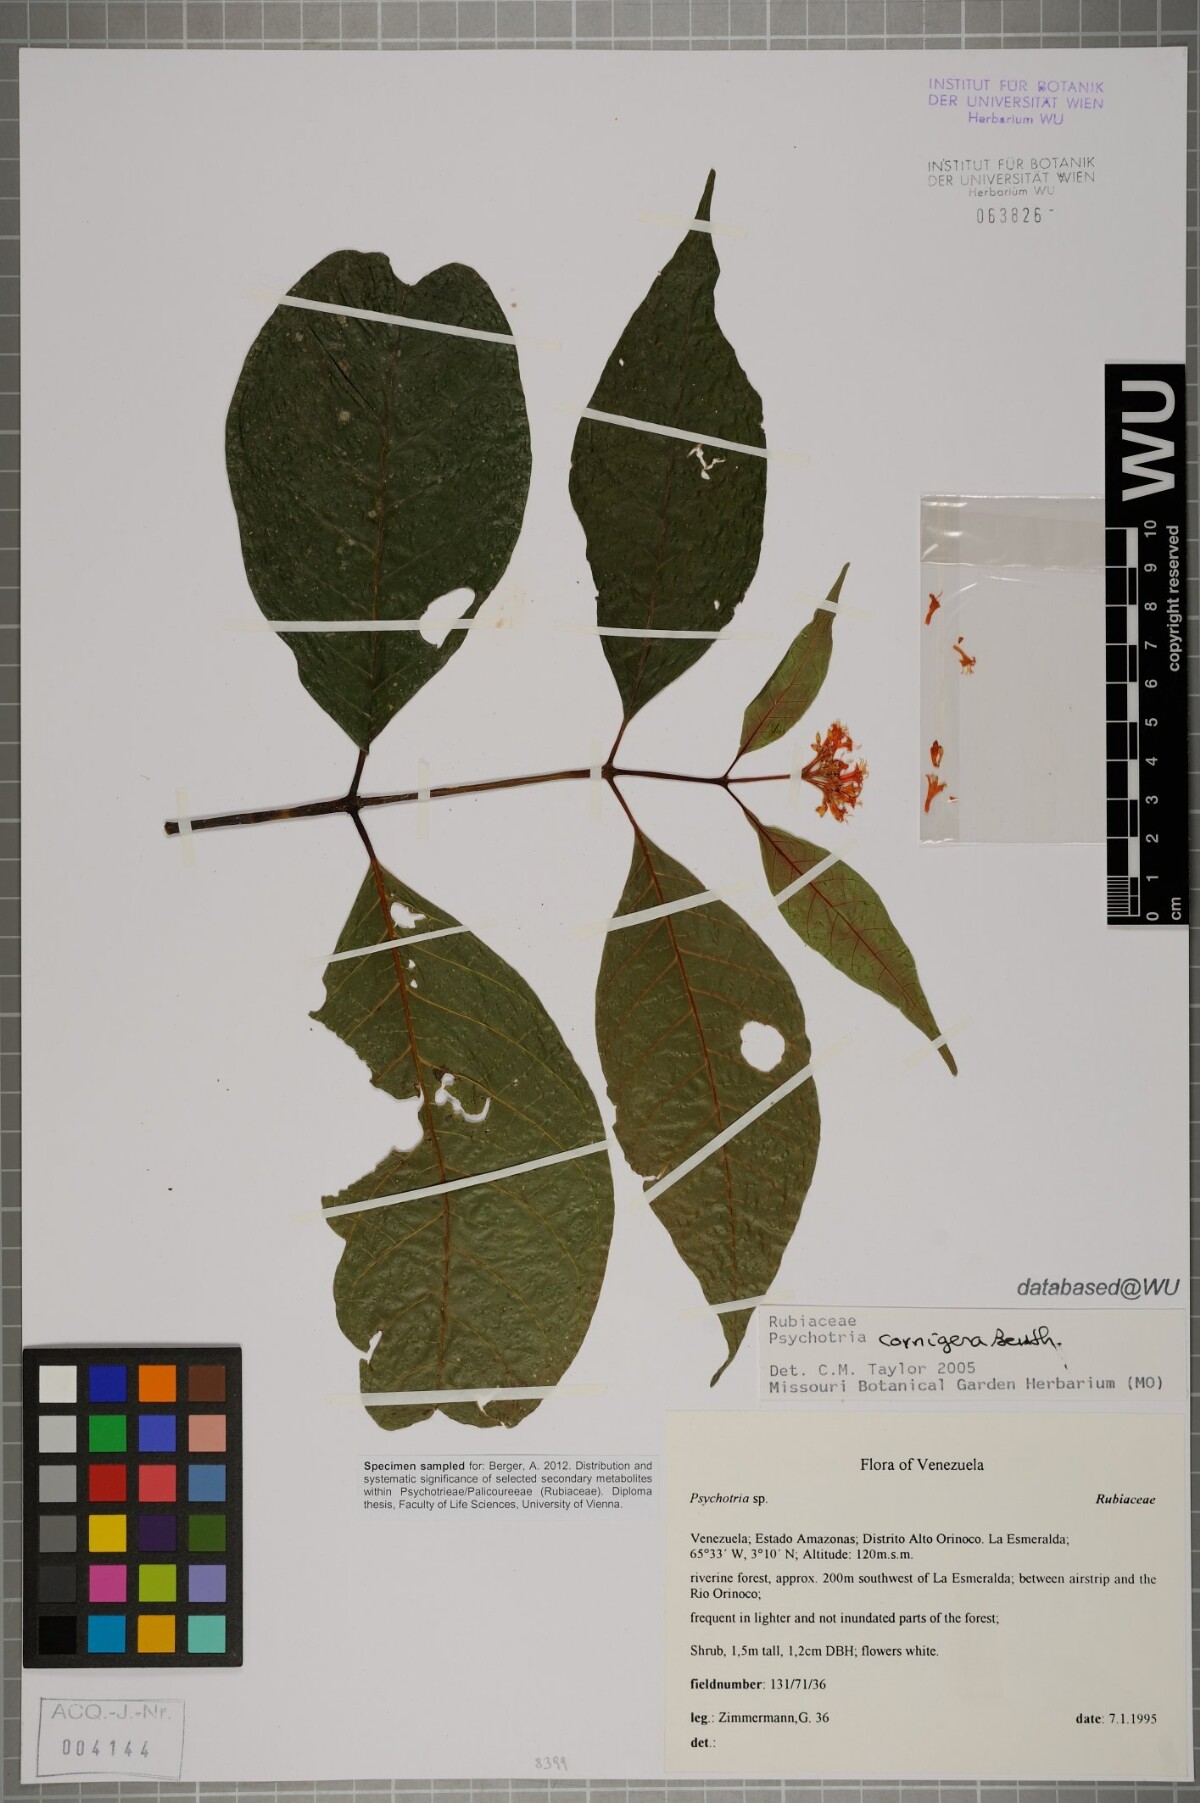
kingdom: Plantae
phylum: Tracheophyta
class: Magnoliopsida
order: Gentianales
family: Rubiaceae
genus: Palicourea
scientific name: Palicourea subcuspidata
